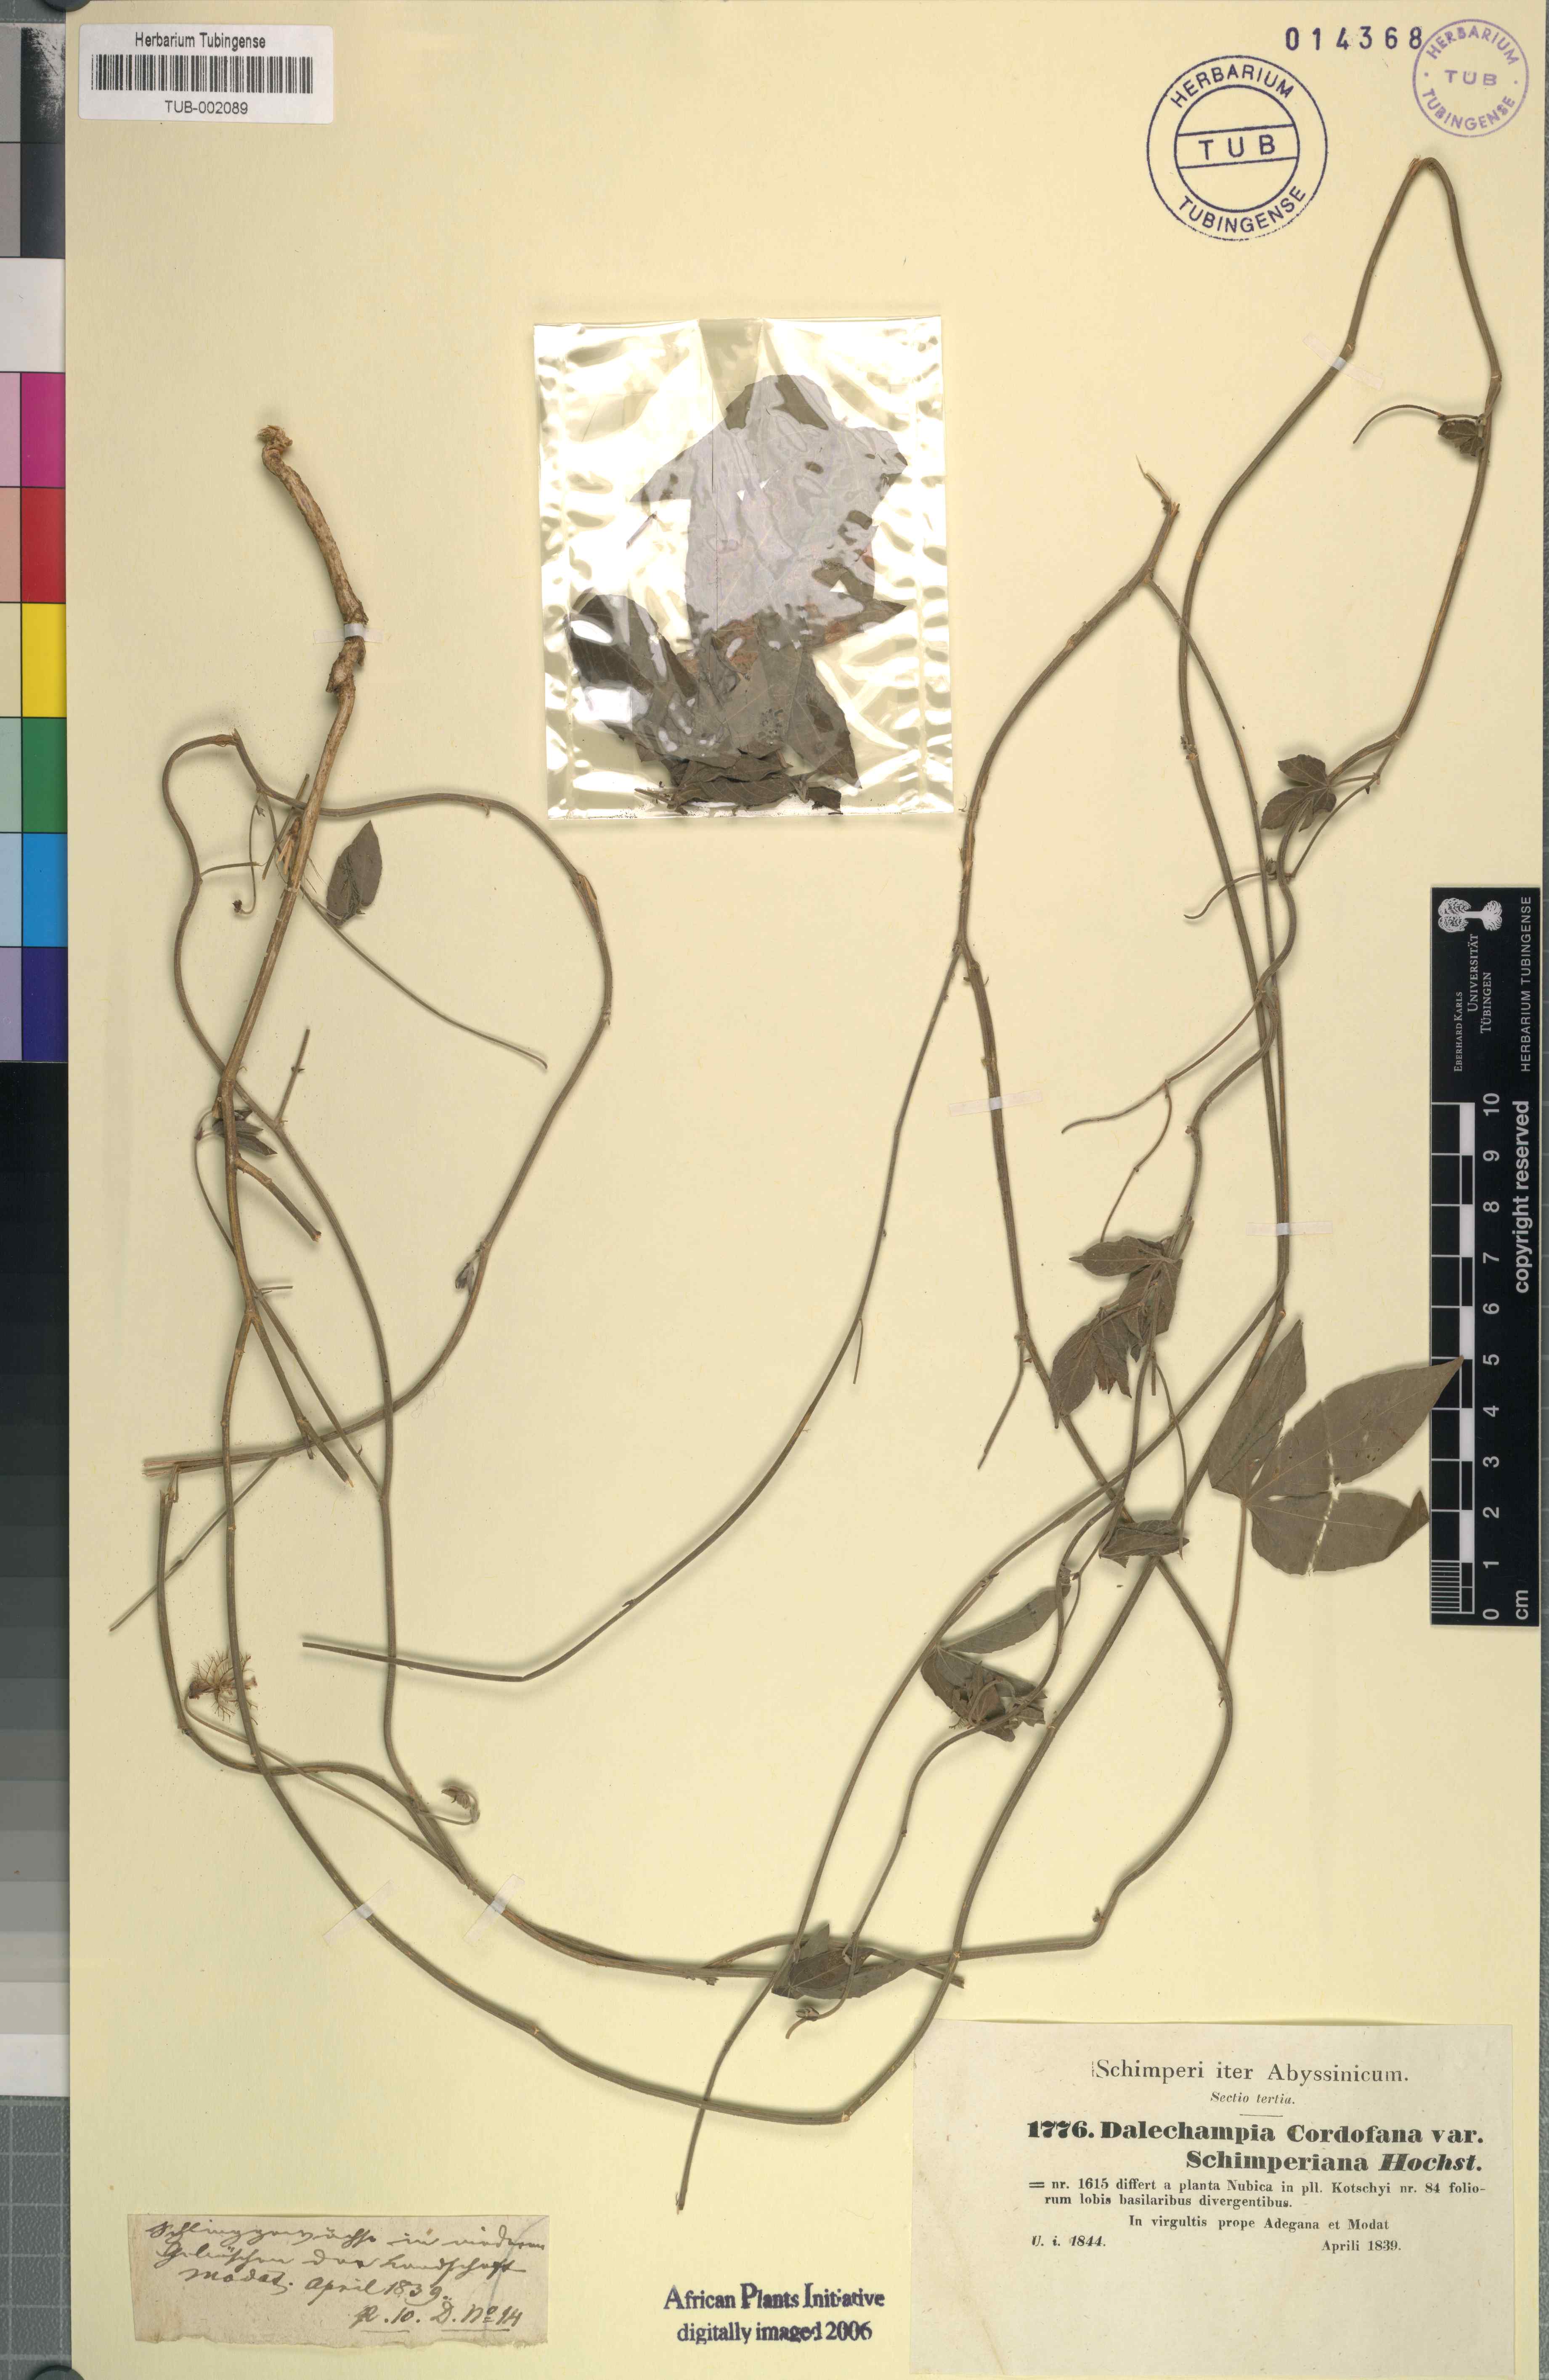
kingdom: Plantae
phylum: Tracheophyta
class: Magnoliopsida
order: Malpighiales
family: Euphorbiaceae
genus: Dalechampia
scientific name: Dalechampia scandens
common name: Spurgecreeper
